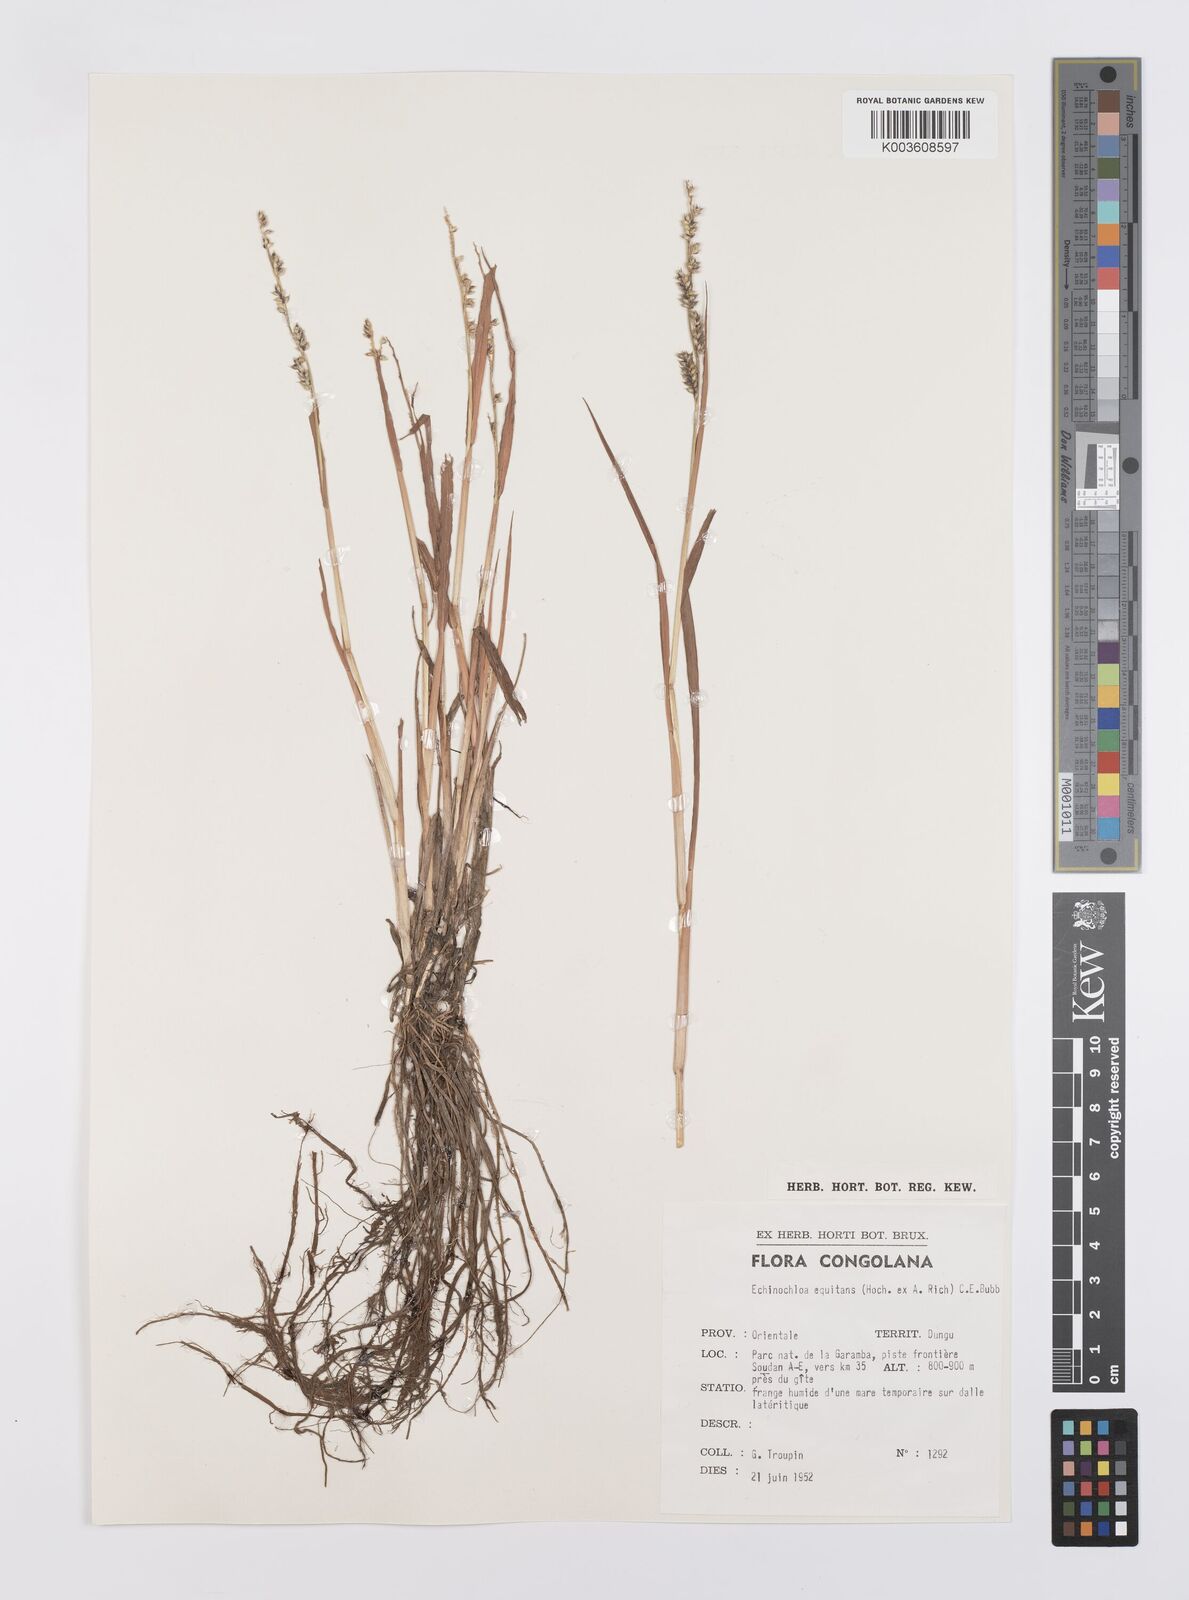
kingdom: Plantae
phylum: Tracheophyta
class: Liliopsida
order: Poales
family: Poaceae
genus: Echinochloa
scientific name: Echinochloa colonum
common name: Jungle rice
